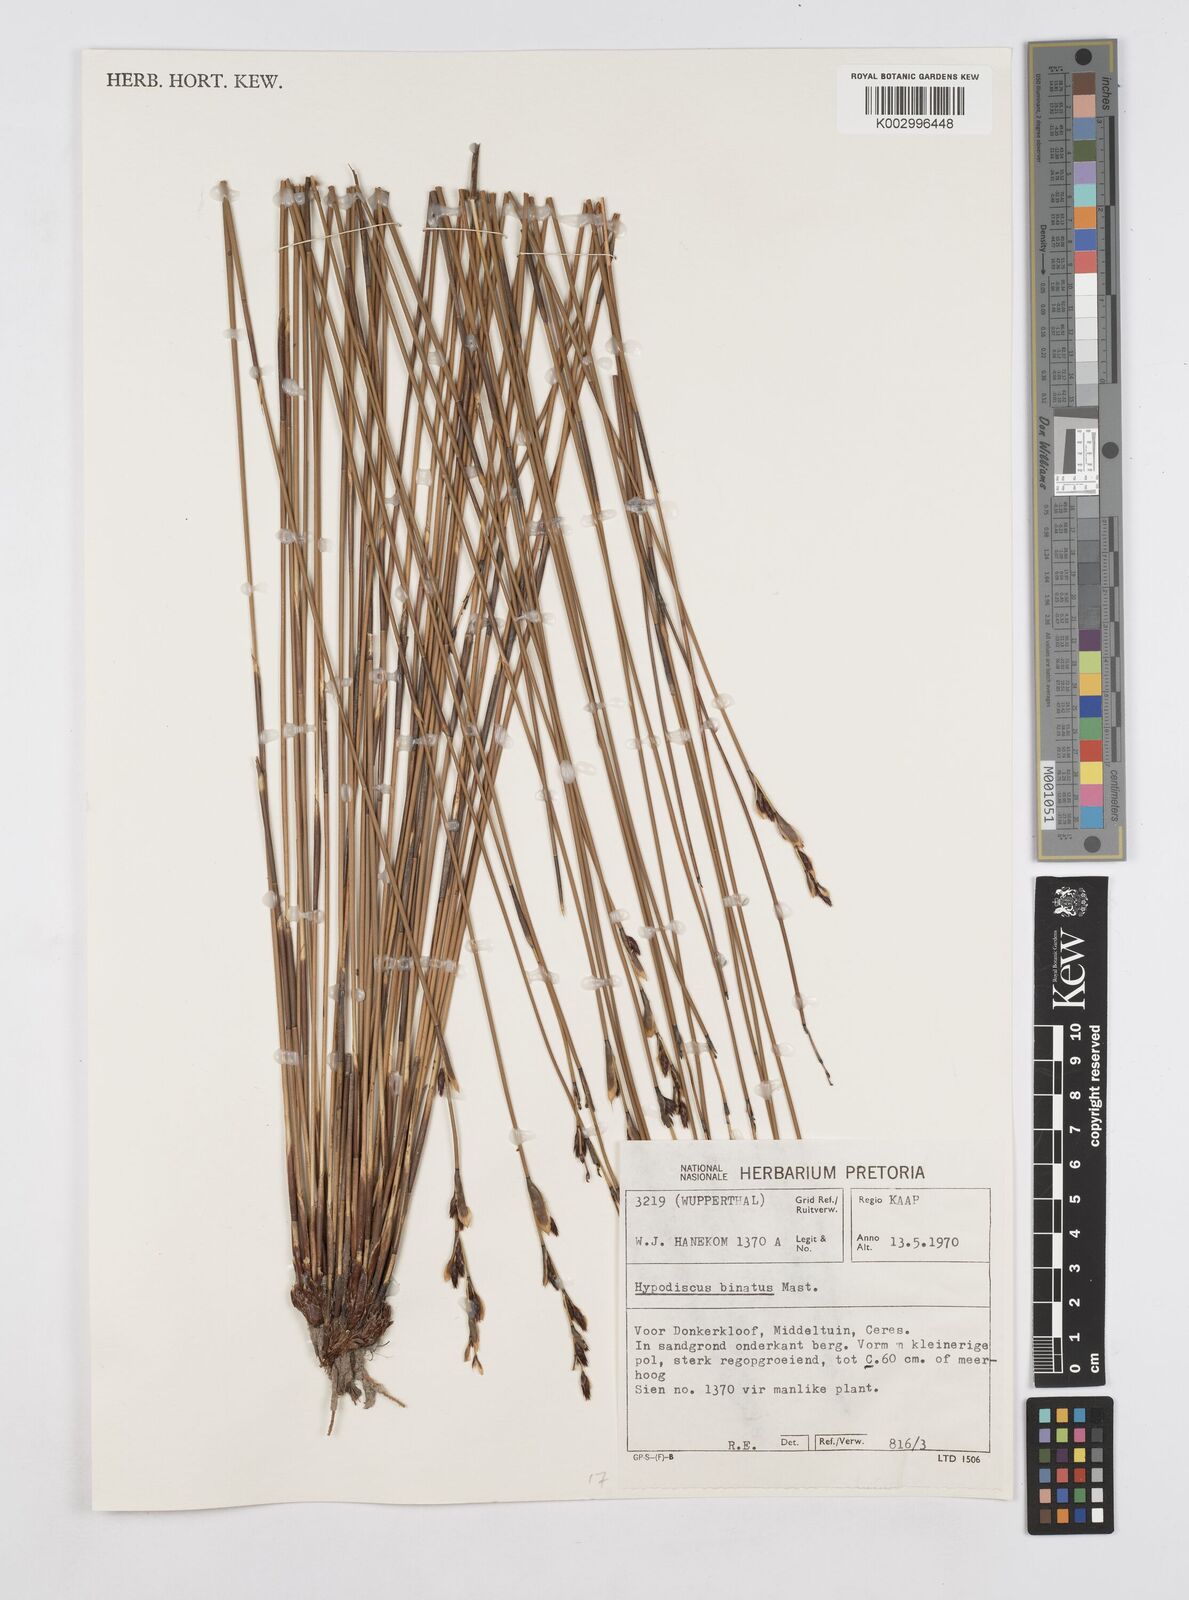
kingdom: Plantae
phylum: Tracheophyta
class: Liliopsida
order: Poales
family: Restionaceae
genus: Hypodiscus
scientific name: Hypodiscus laevigatus
